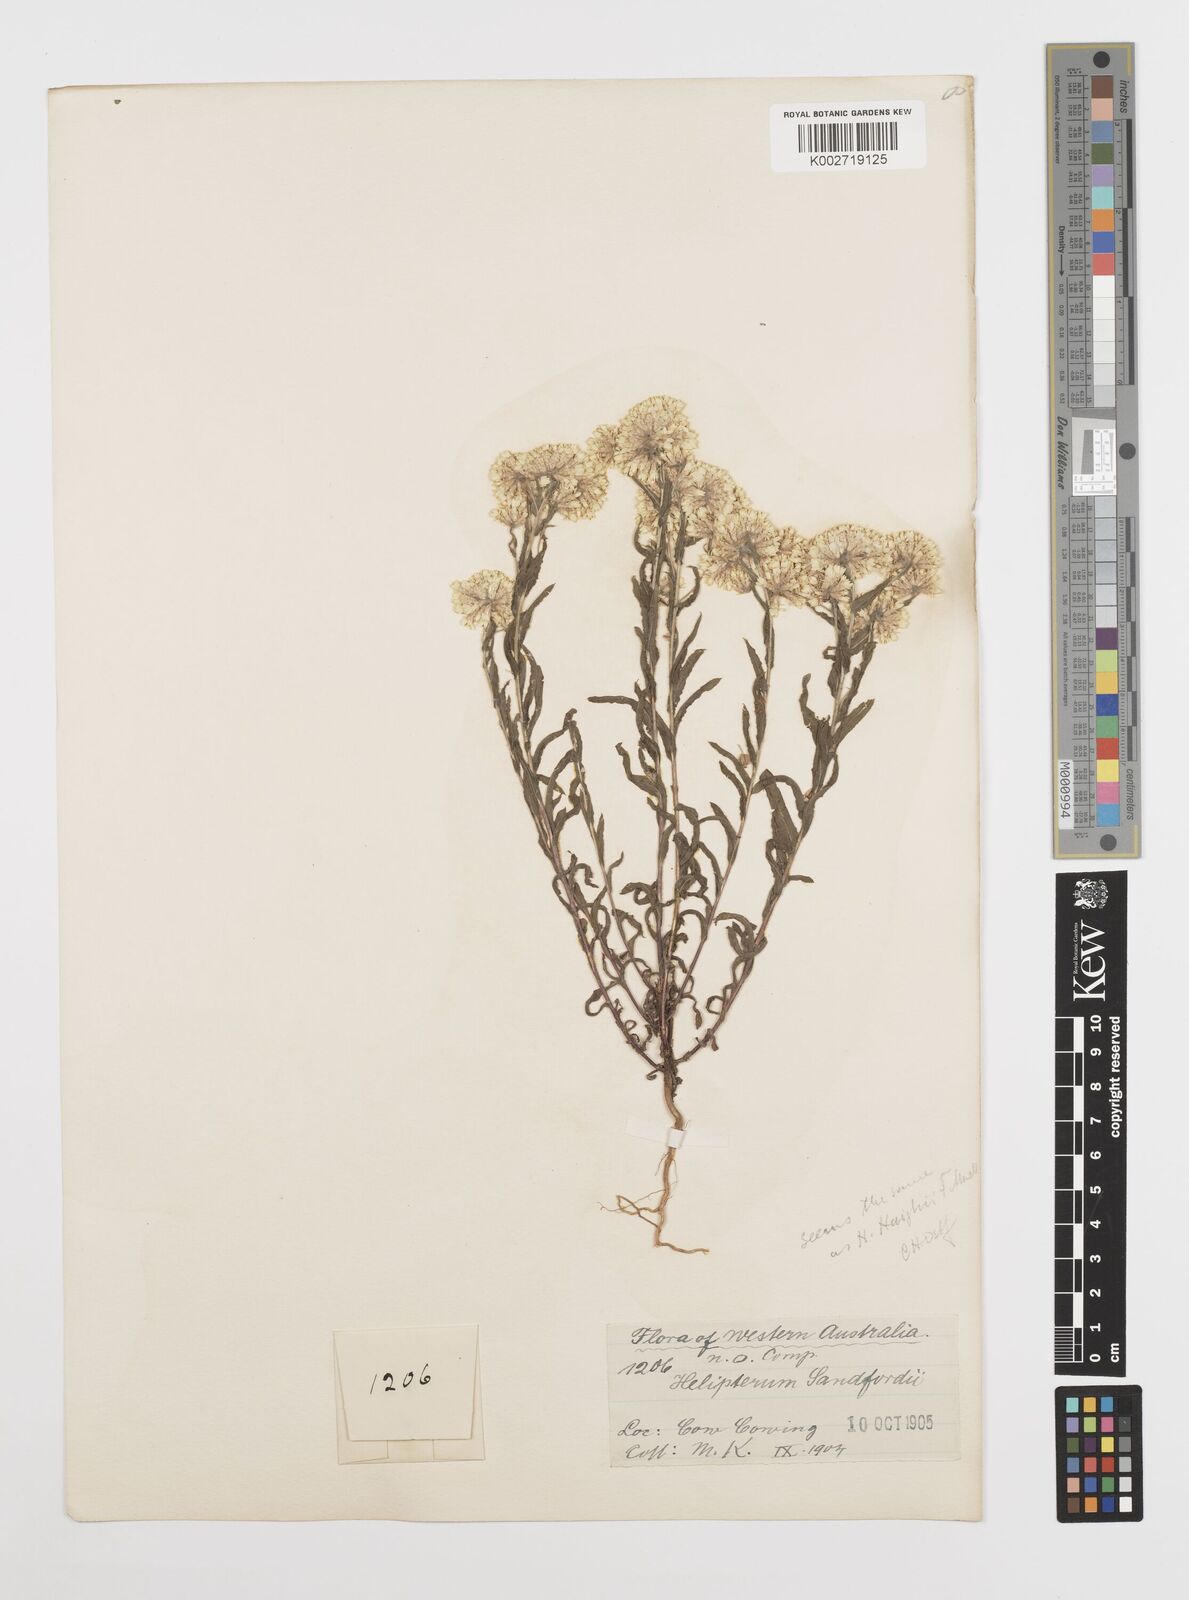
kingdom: Plantae
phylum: Tracheophyta
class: Magnoliopsida
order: Asterales
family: Asteraceae
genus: Rhodanthe
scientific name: Rhodanthe humboldtiana
